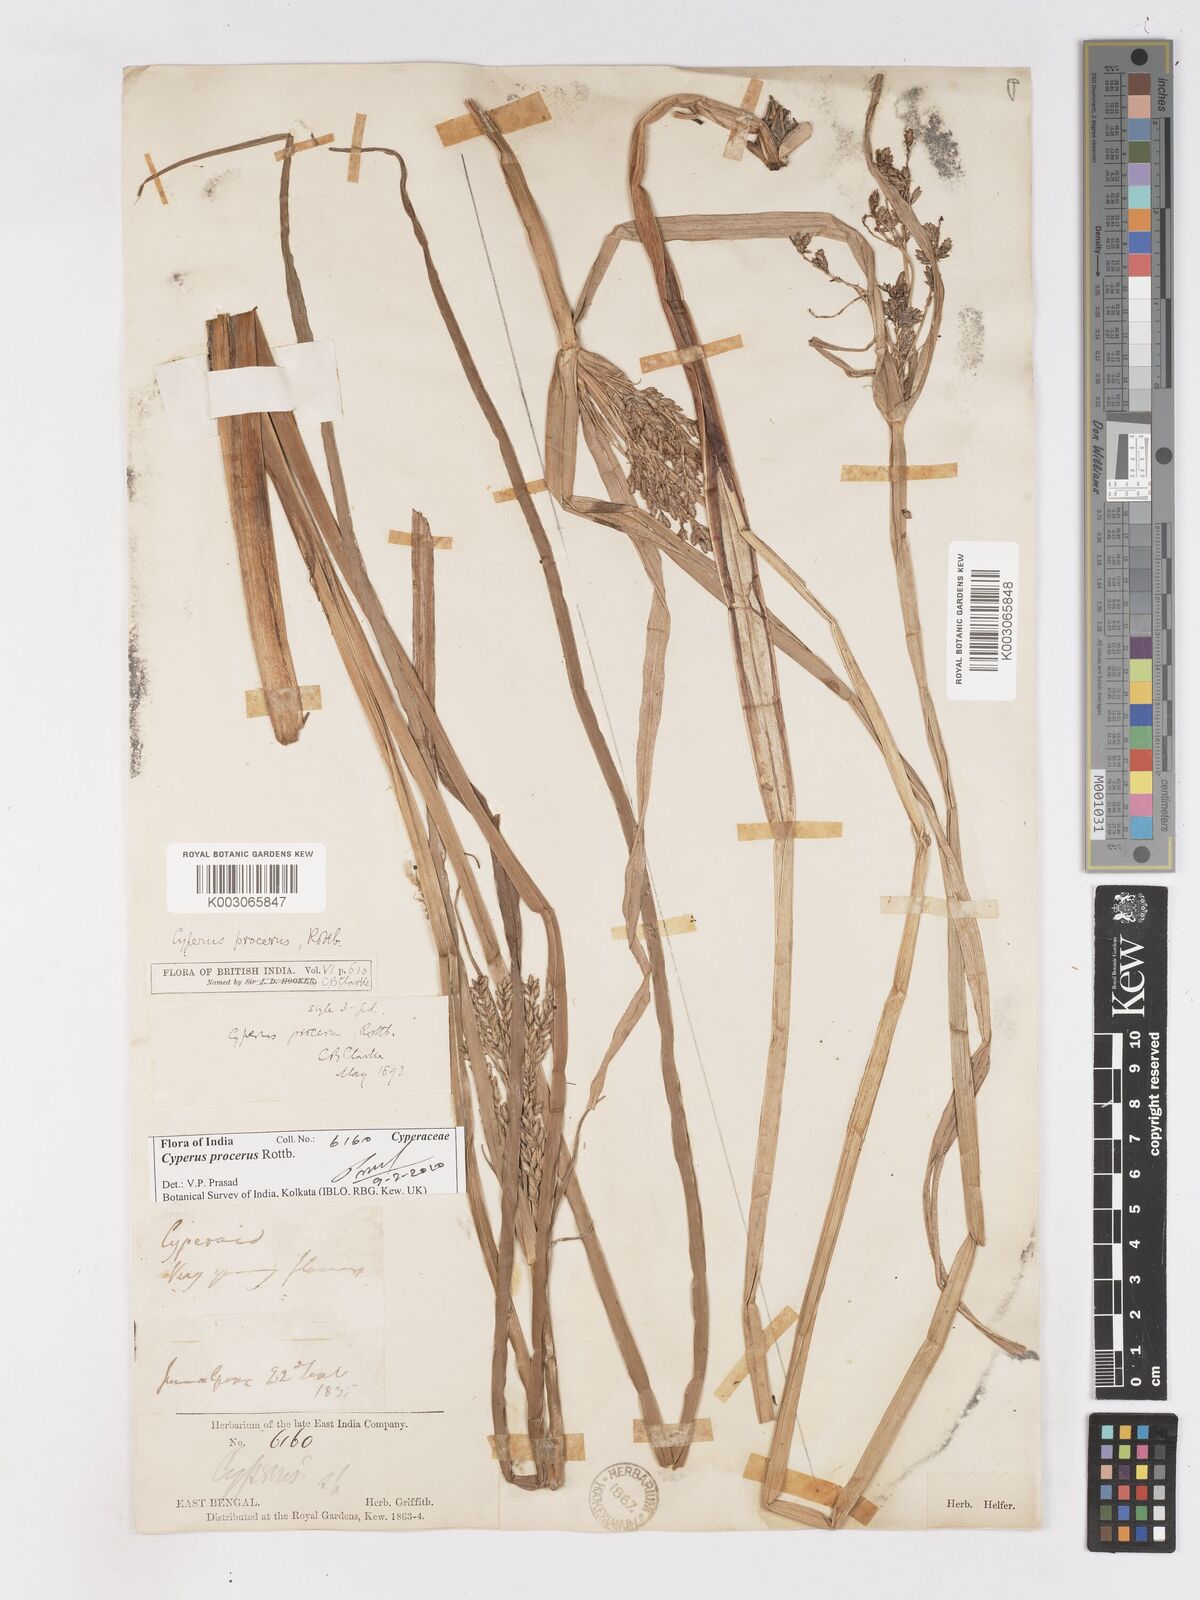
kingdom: Plantae
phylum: Tracheophyta
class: Liliopsida
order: Poales
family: Cyperaceae
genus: Cyperus
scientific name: Cyperus procerus
